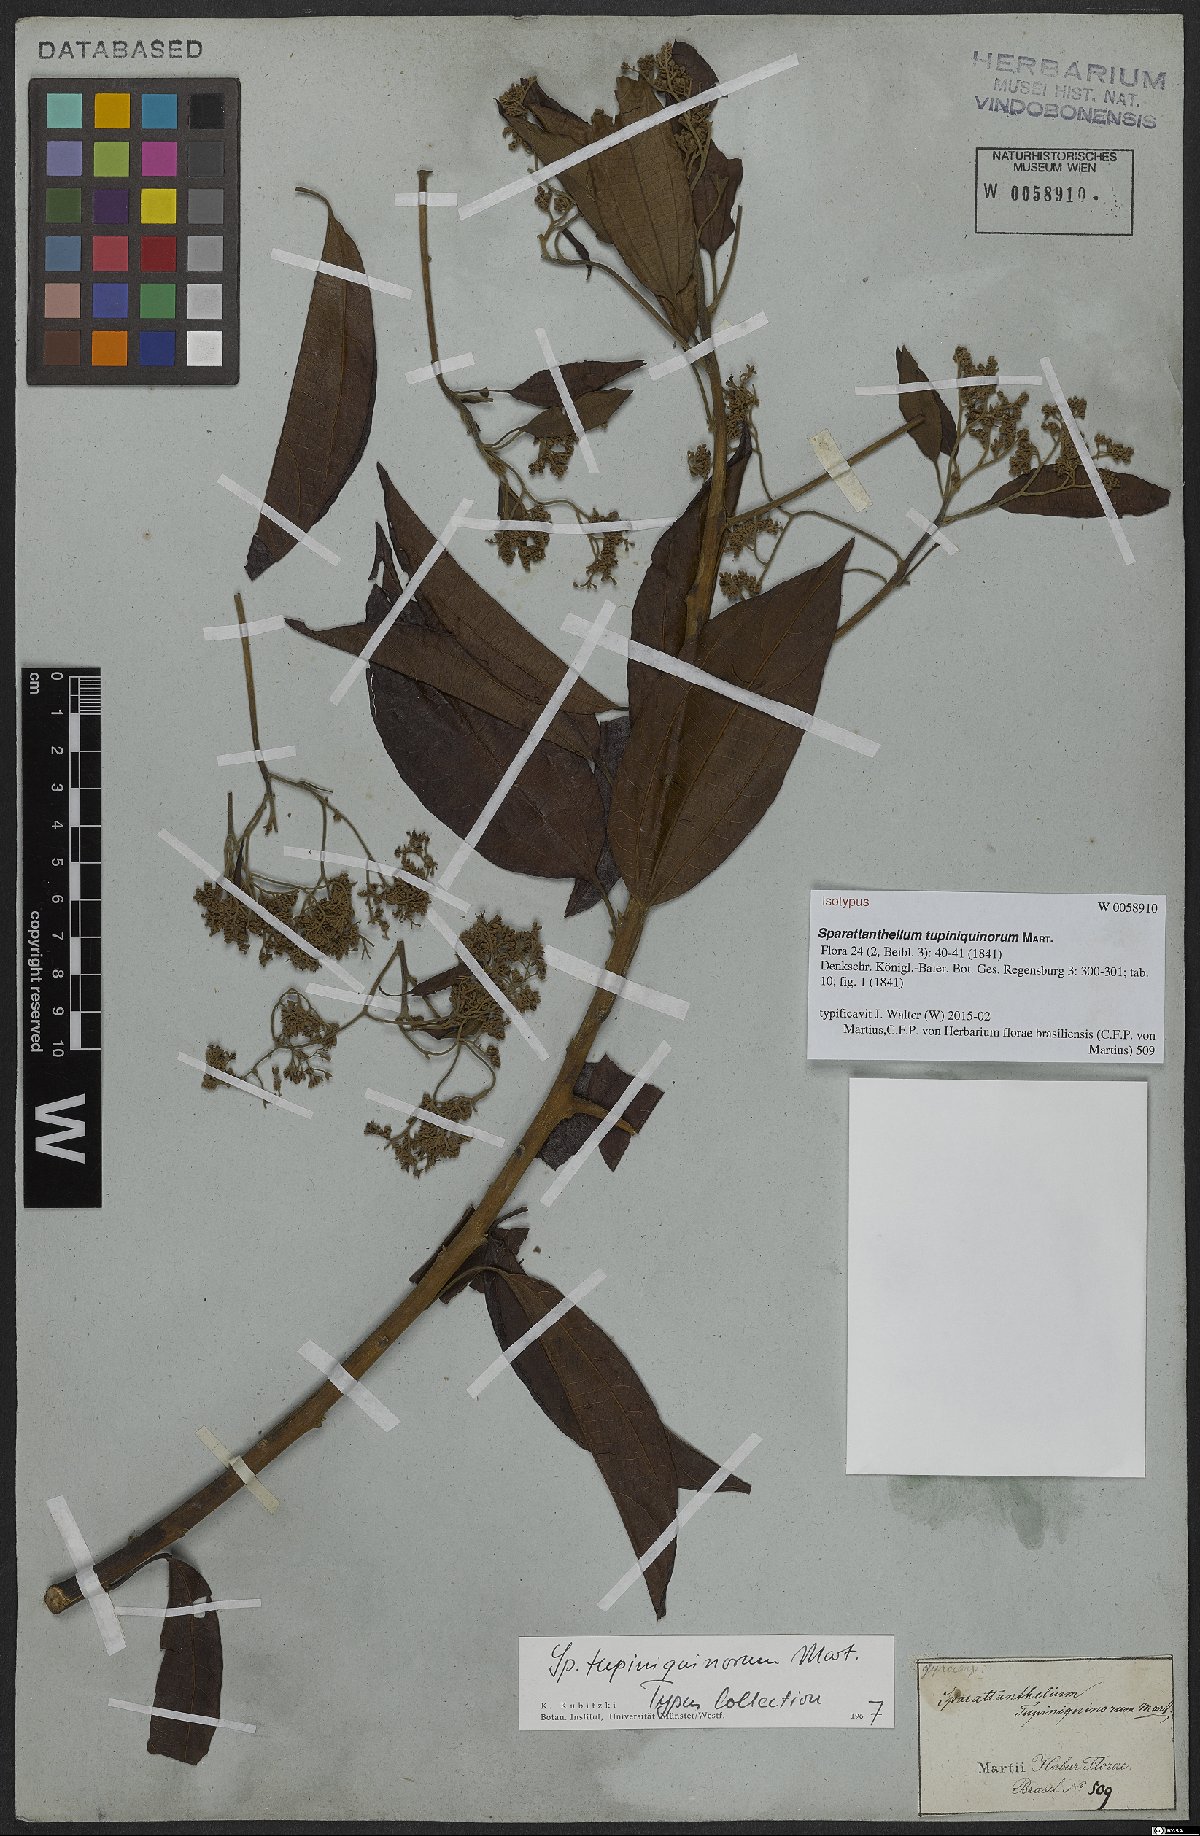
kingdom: Plantae
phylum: Tracheophyta
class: Magnoliopsida
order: Laurales
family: Hernandiaceae
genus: Sparattanthelium
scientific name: Sparattanthelium tupiniquinorum
